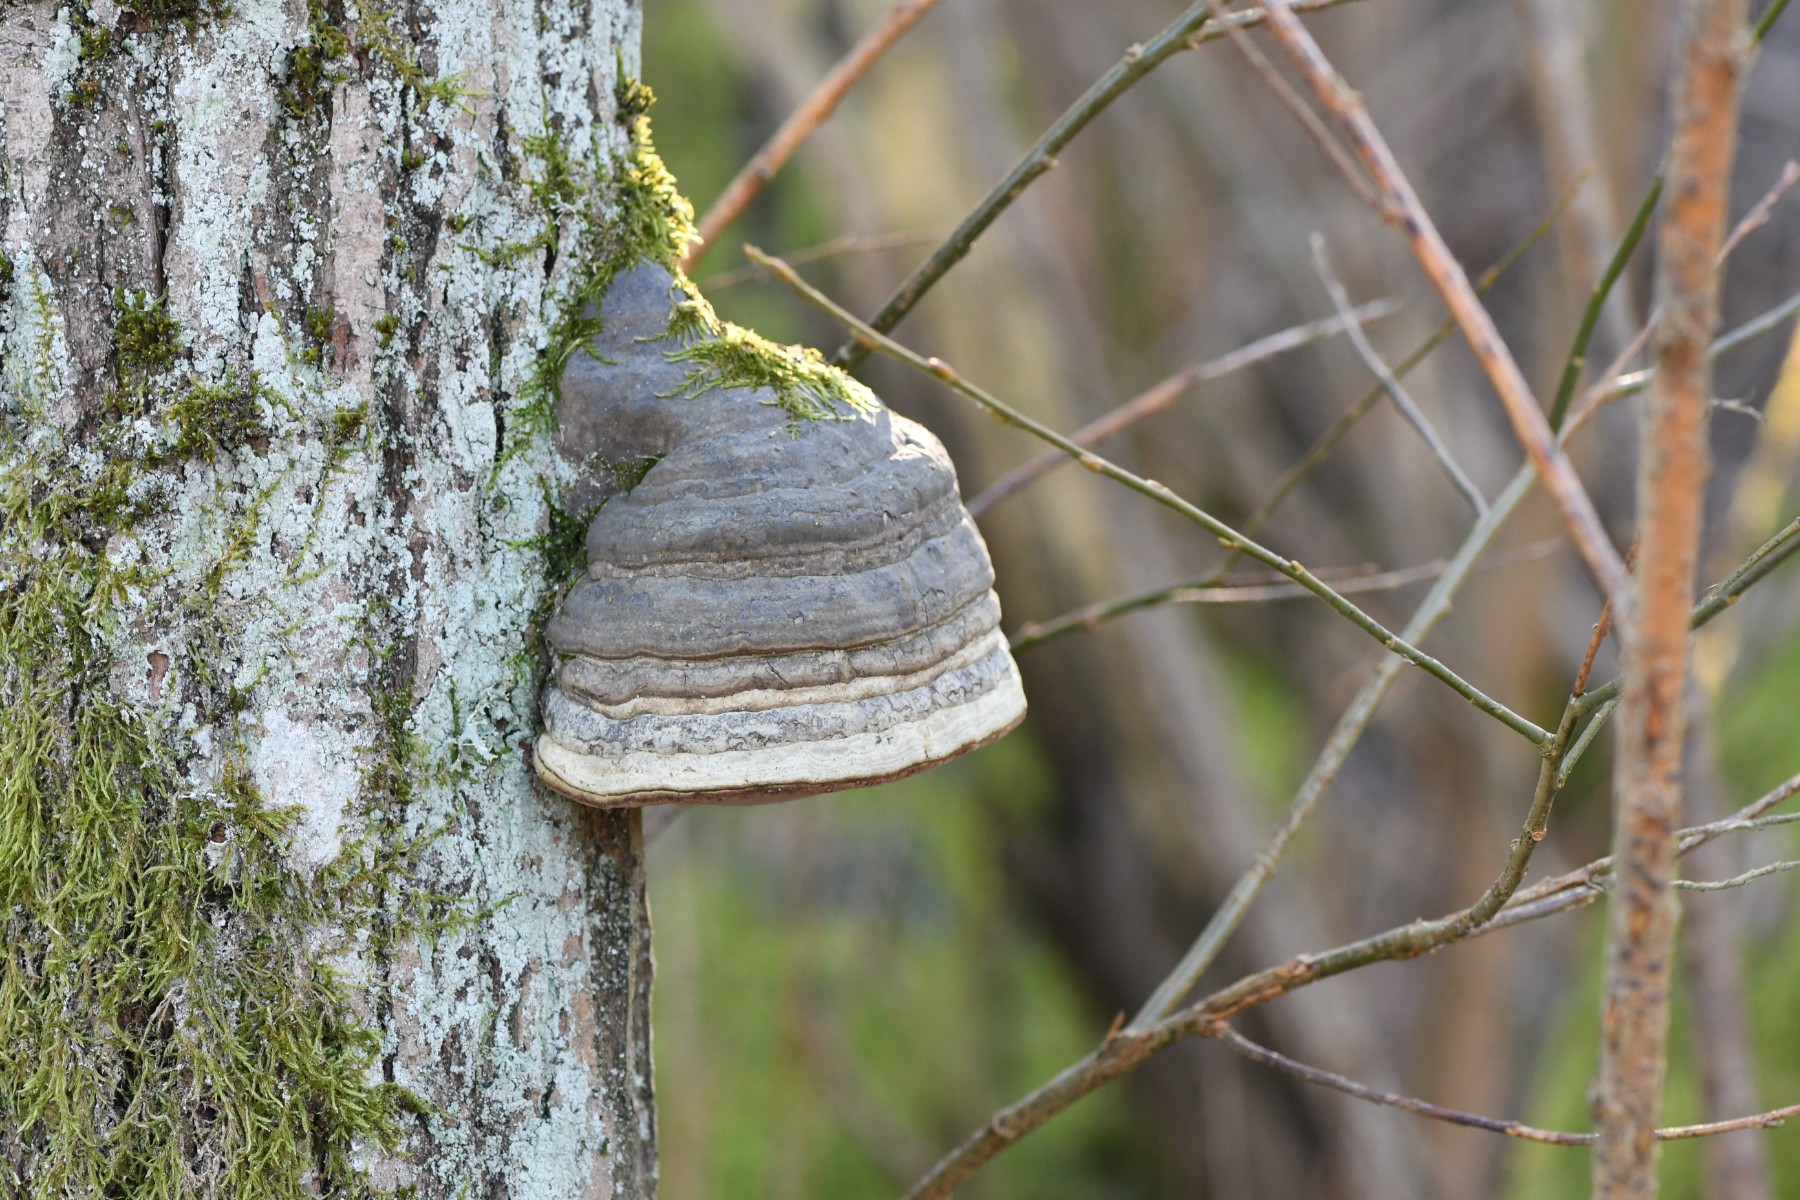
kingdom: Fungi
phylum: Basidiomycota
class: Agaricomycetes
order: Polyporales
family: Polyporaceae
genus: Fomes
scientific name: Fomes fomentarius
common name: tøndersvamp
